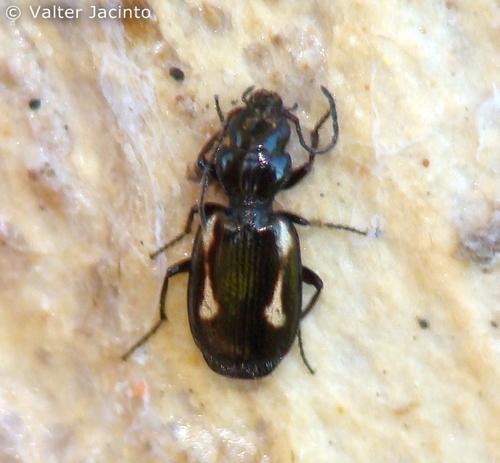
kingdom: Animalia
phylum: Arthropoda
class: Insecta
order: Coleoptera
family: Carabidae
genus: Lionychus
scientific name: Lionychus albonotatus
